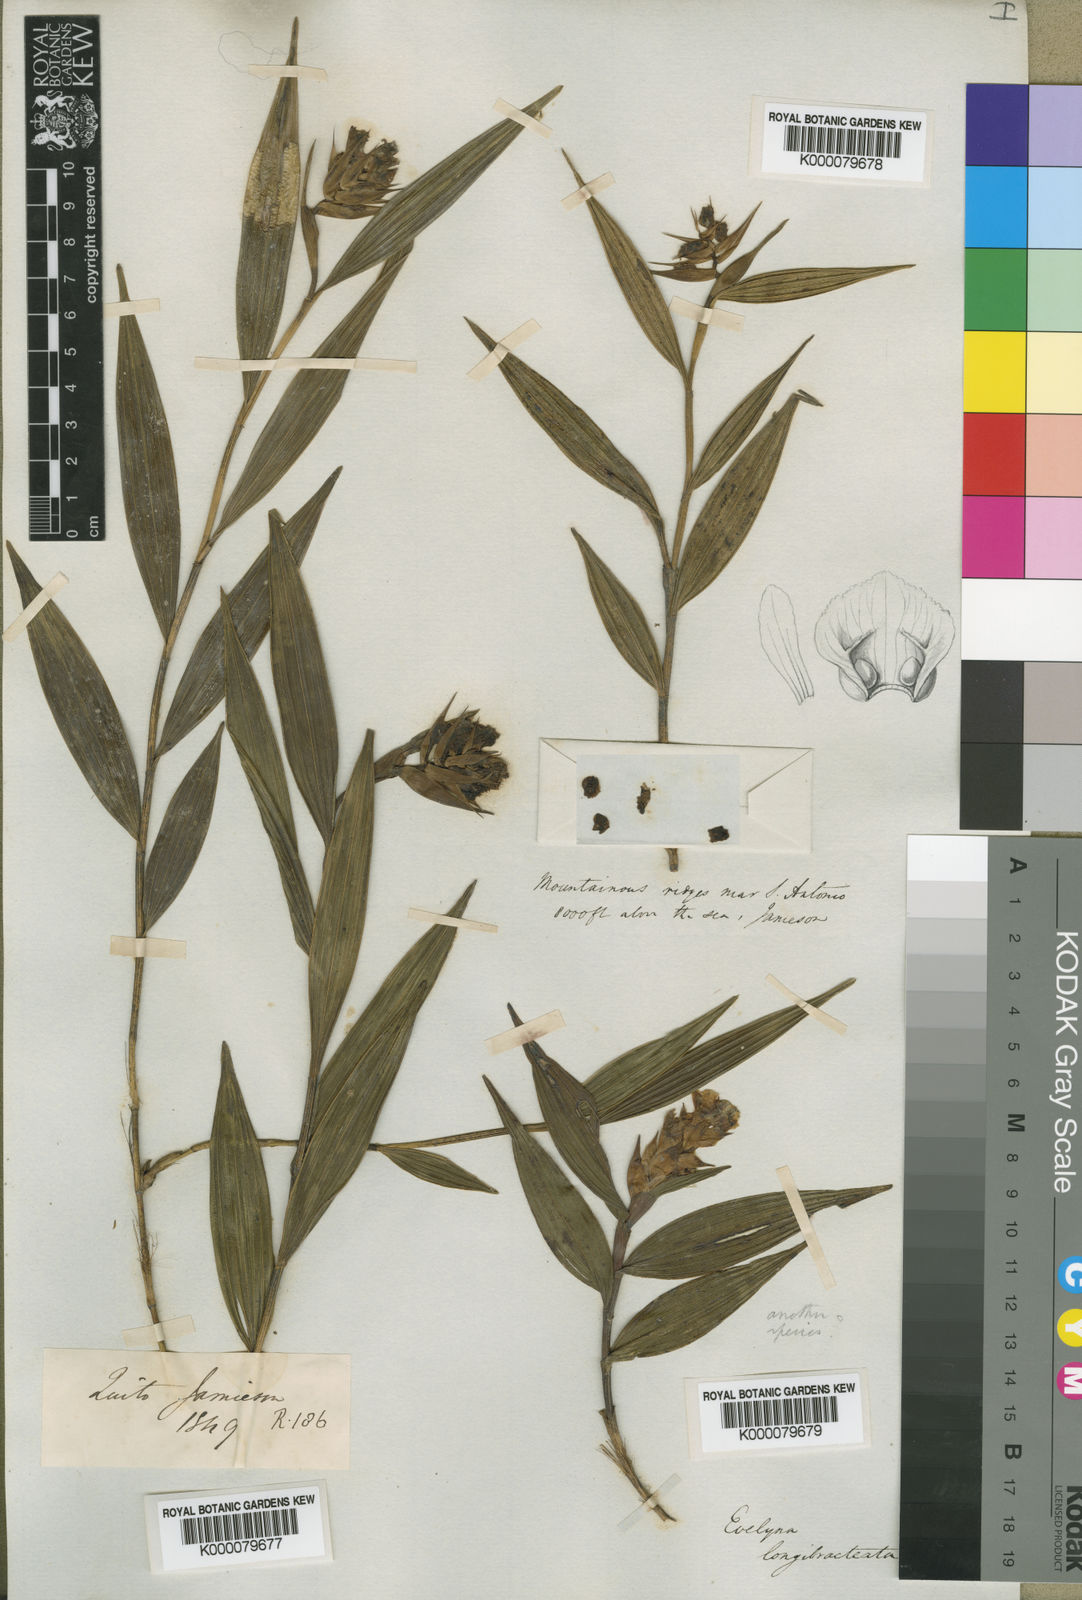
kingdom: Plantae
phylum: Tracheophyta
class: Liliopsida
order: Asparagales
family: Orchidaceae
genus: Elleanthus
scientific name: Elleanthus longibracteatus
